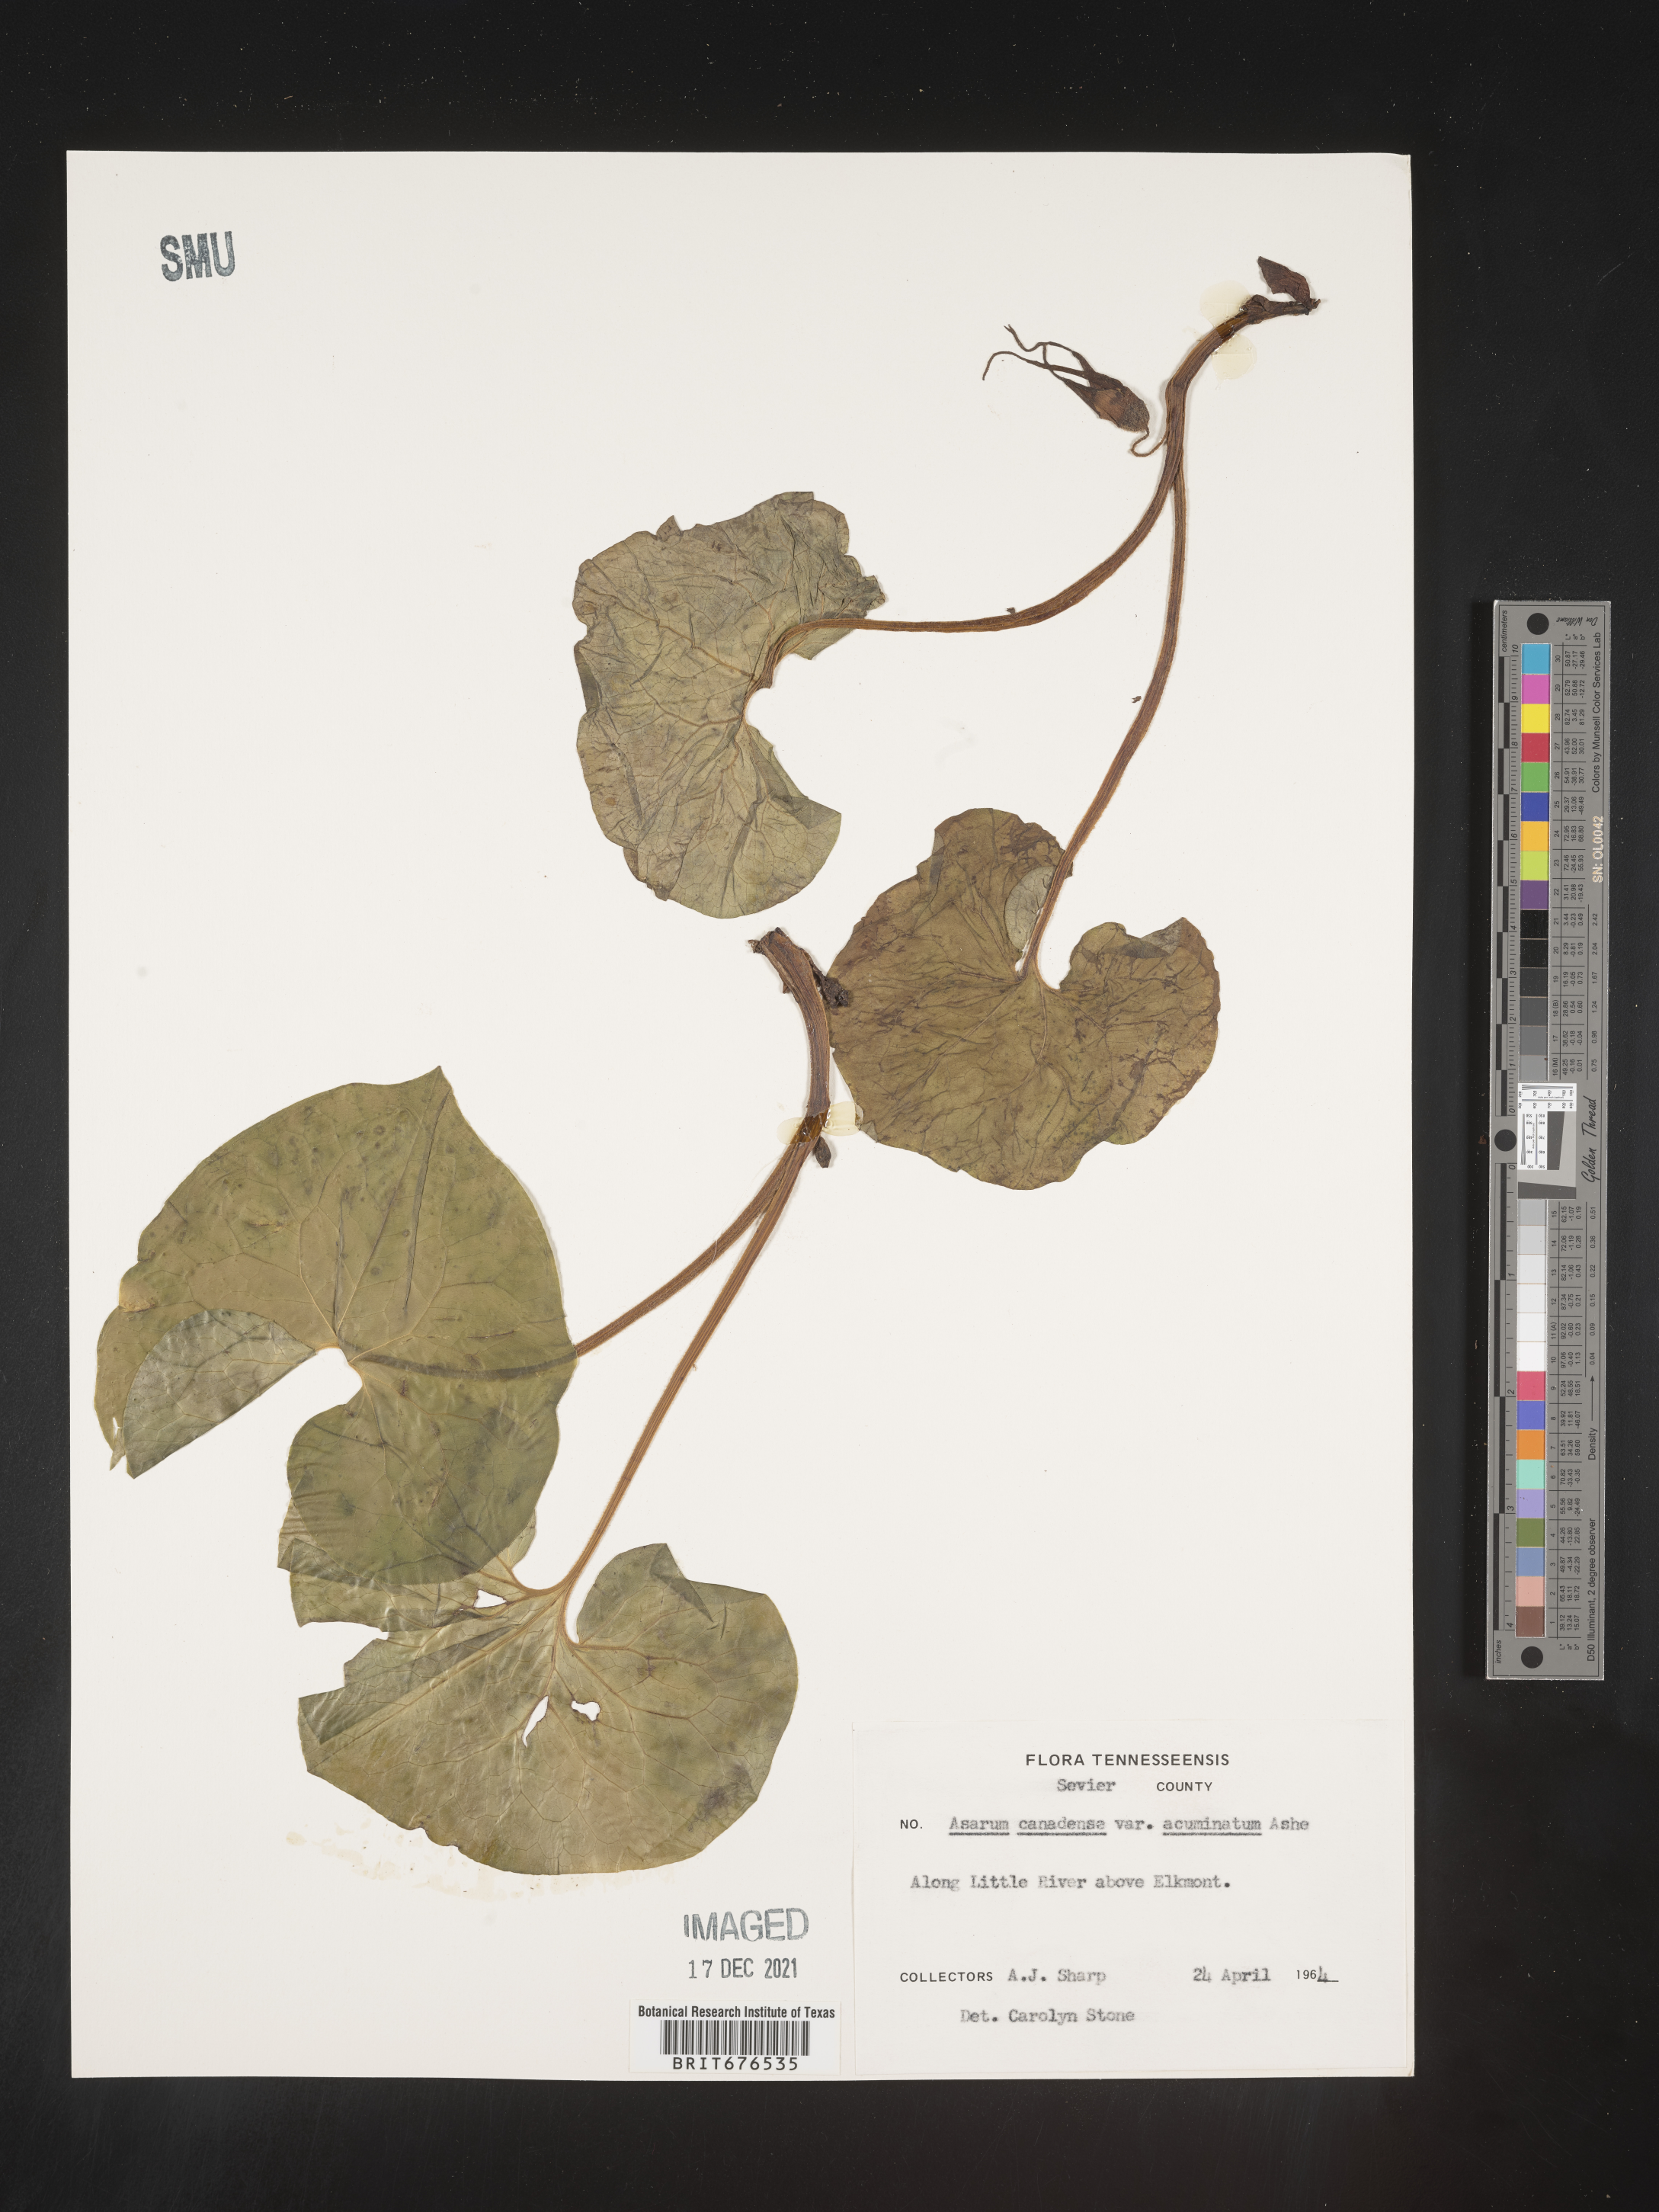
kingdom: Plantae
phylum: Tracheophyta
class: Magnoliopsida
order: Piperales
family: Aristolochiaceae
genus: Asarum
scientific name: Asarum canadense
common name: Wild ginger
